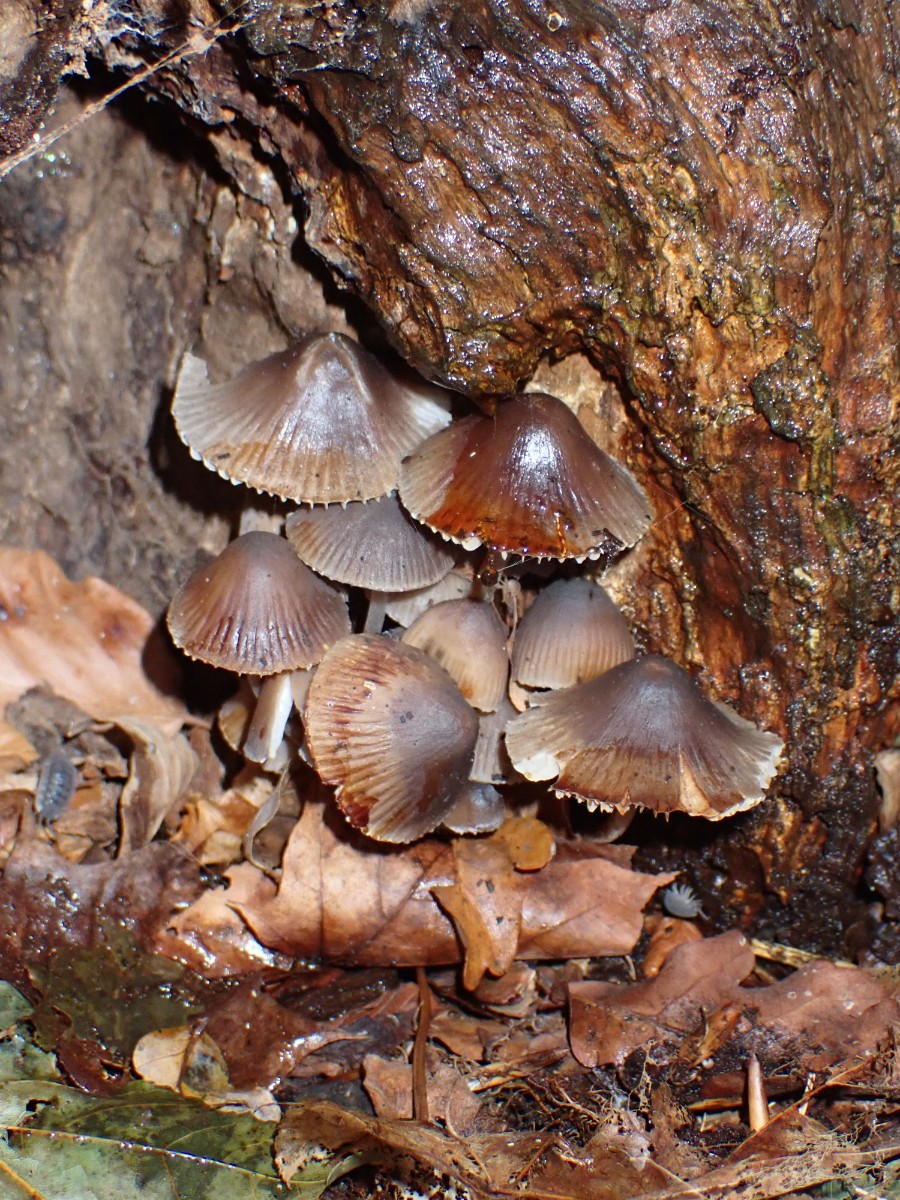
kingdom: Fungi
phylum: Basidiomycota
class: Agaricomycetes
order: Agaricales
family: Mycenaceae
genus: Mycena
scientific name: Mycena inclinata
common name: nikkende huesvamp
